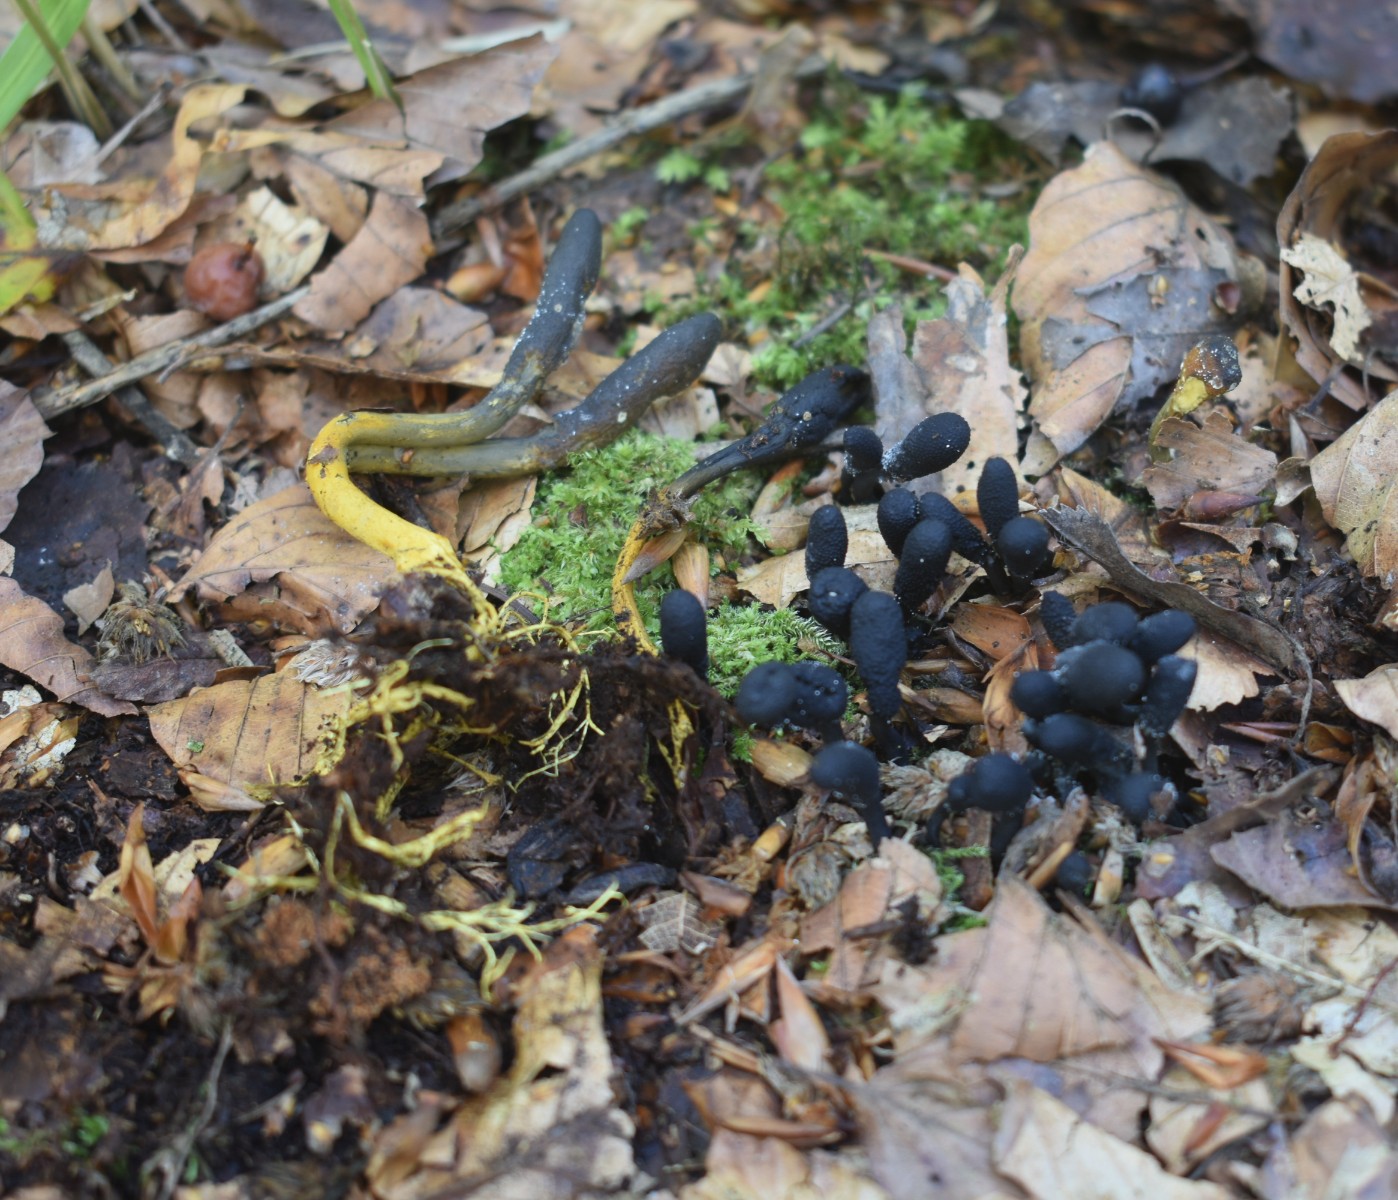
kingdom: Fungi
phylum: Ascomycota
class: Sordariomycetes
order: Hypocreales
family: Ophiocordycipitaceae
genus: Tolypocladium
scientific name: Tolypocladium ophioglossoides
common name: slank snyltekølle
